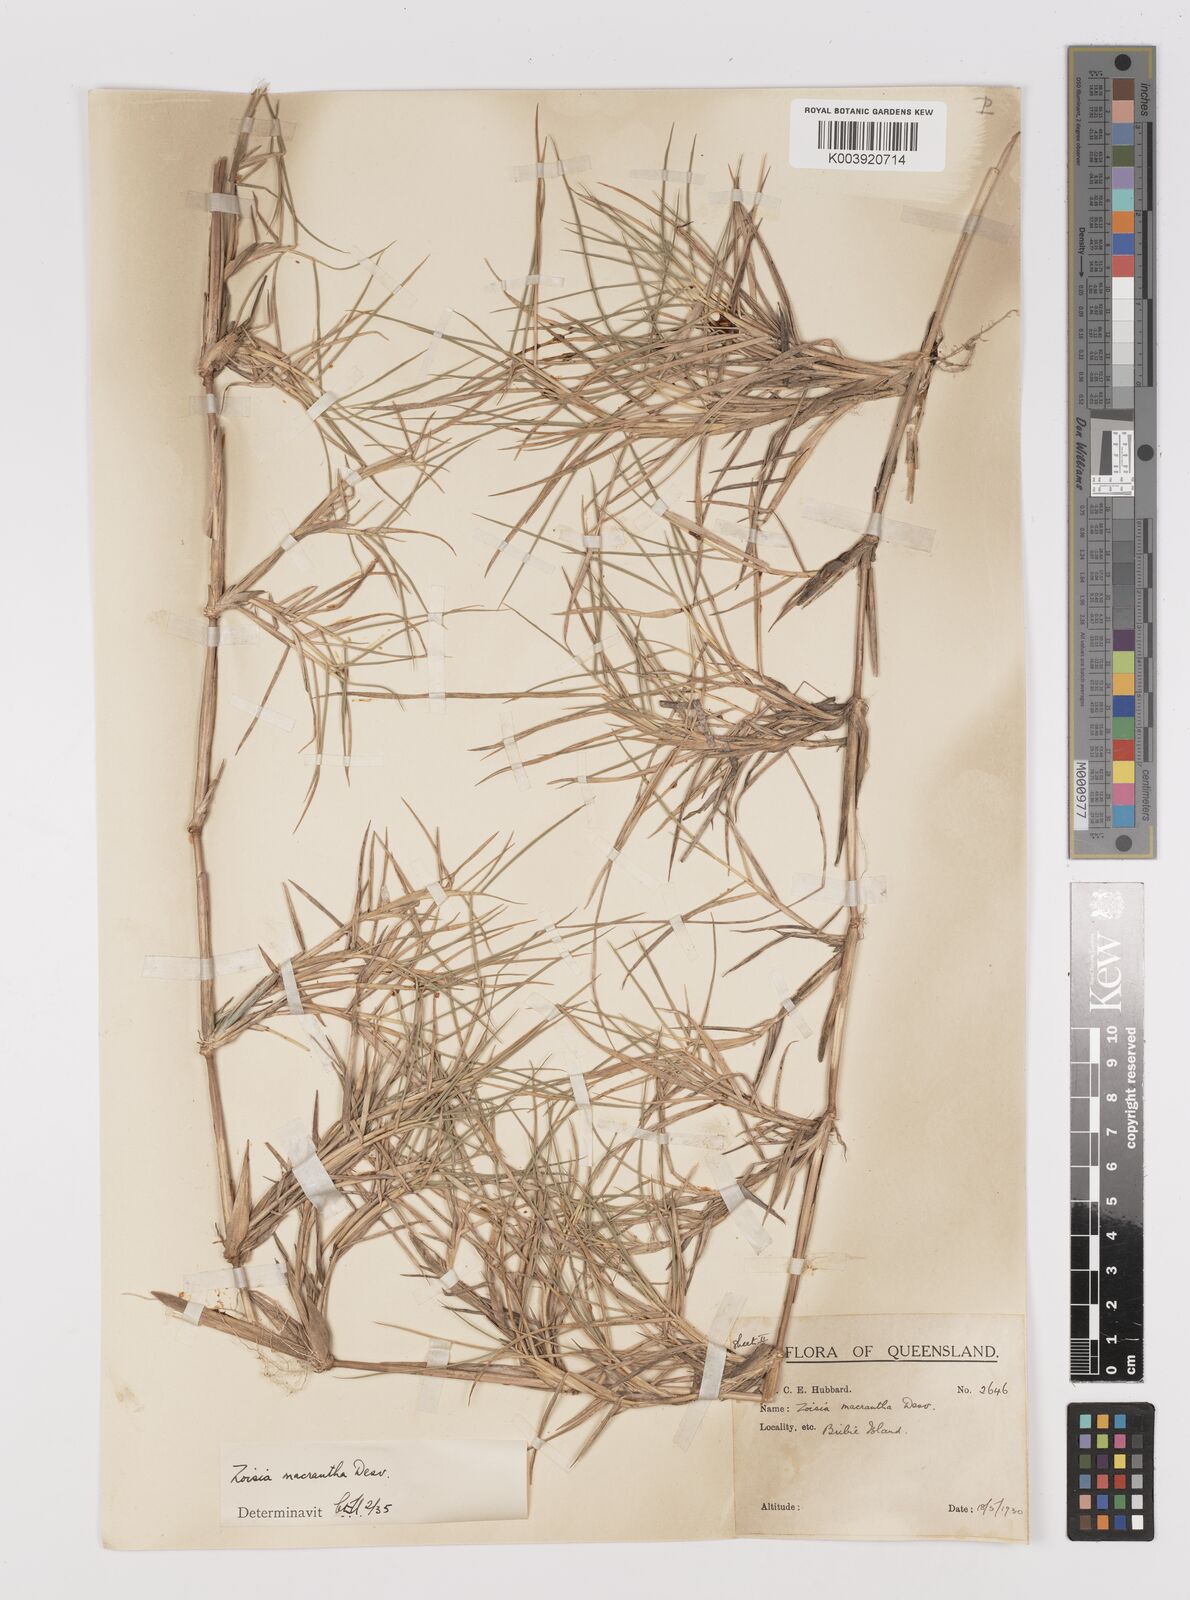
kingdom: Plantae
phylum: Tracheophyta
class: Liliopsida
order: Poales
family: Poaceae
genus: Zoysia
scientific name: Zoysia macrantha
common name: Korean lawn grass
